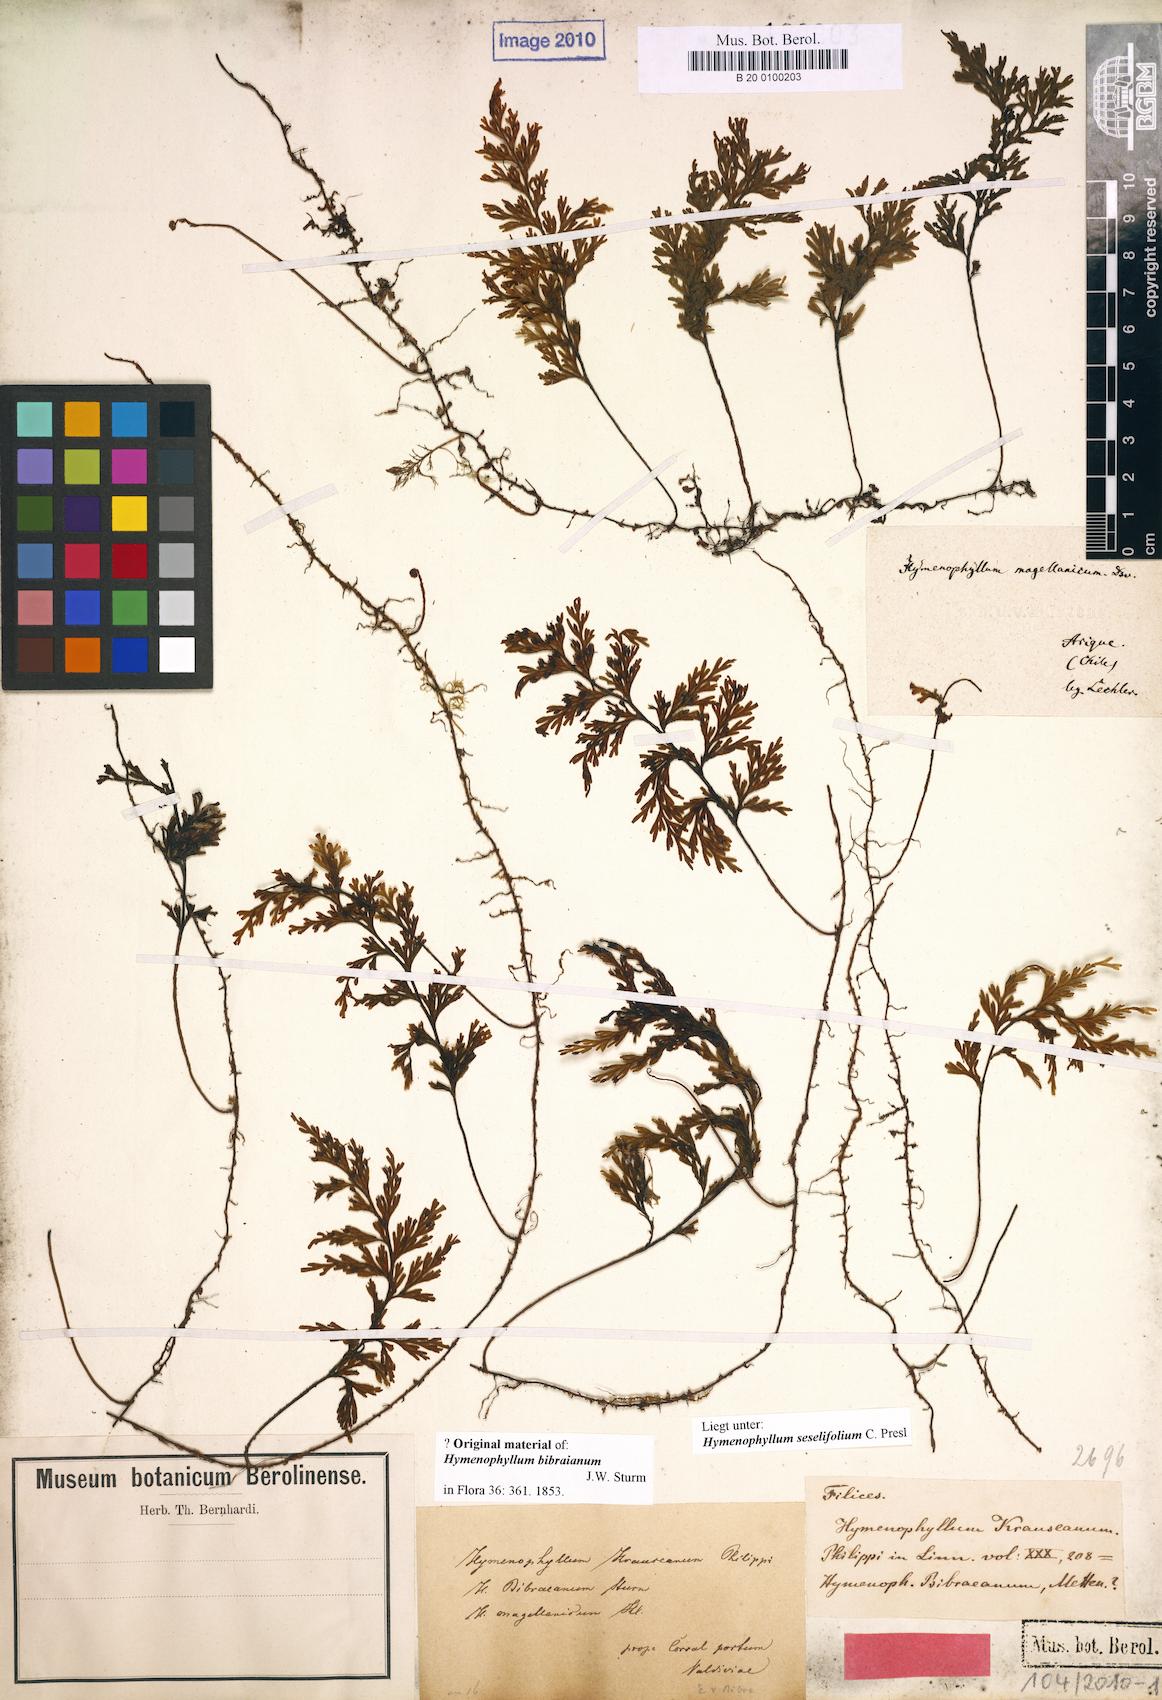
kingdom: Plantae
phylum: Tracheophyta
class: Polypodiopsida
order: Hymenophyllales
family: Hymenophyllaceae
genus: Hymenophyllum
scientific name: Hymenophyllum seselifolium
